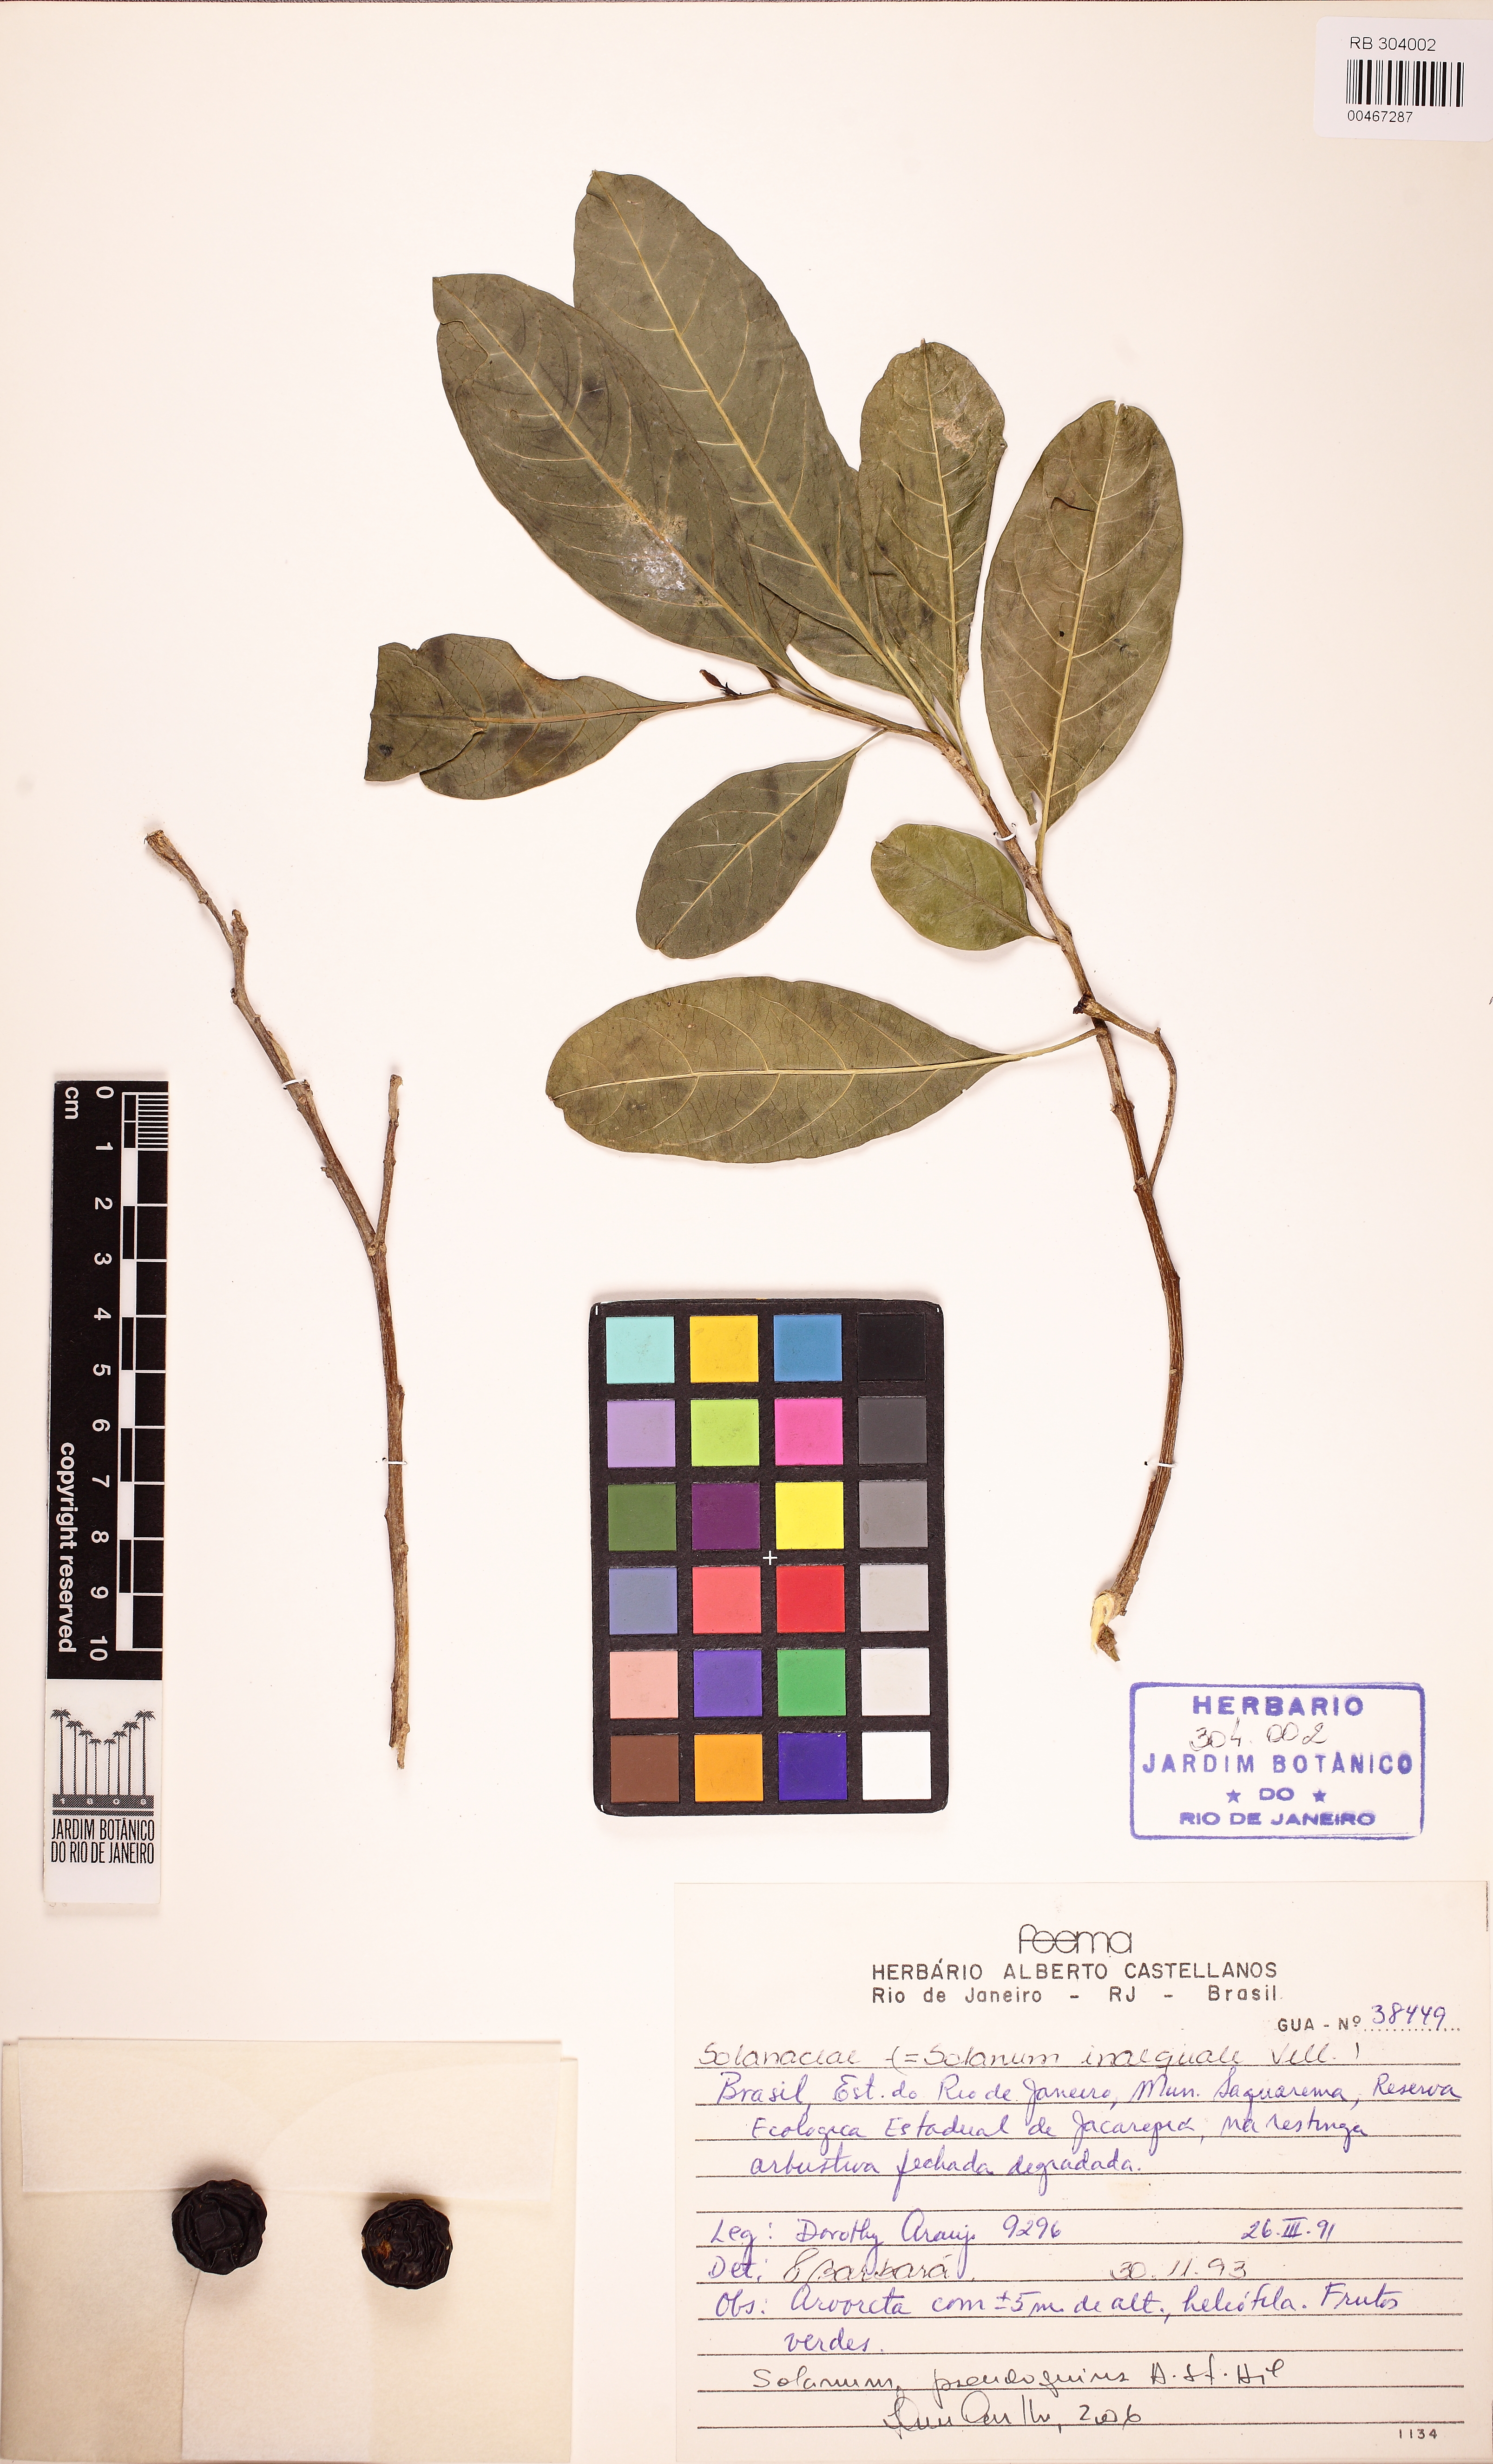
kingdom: Plantae
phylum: Tracheophyta
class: Magnoliopsida
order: Solanales
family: Solanaceae
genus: Solanum
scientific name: Solanum pseudoquina
